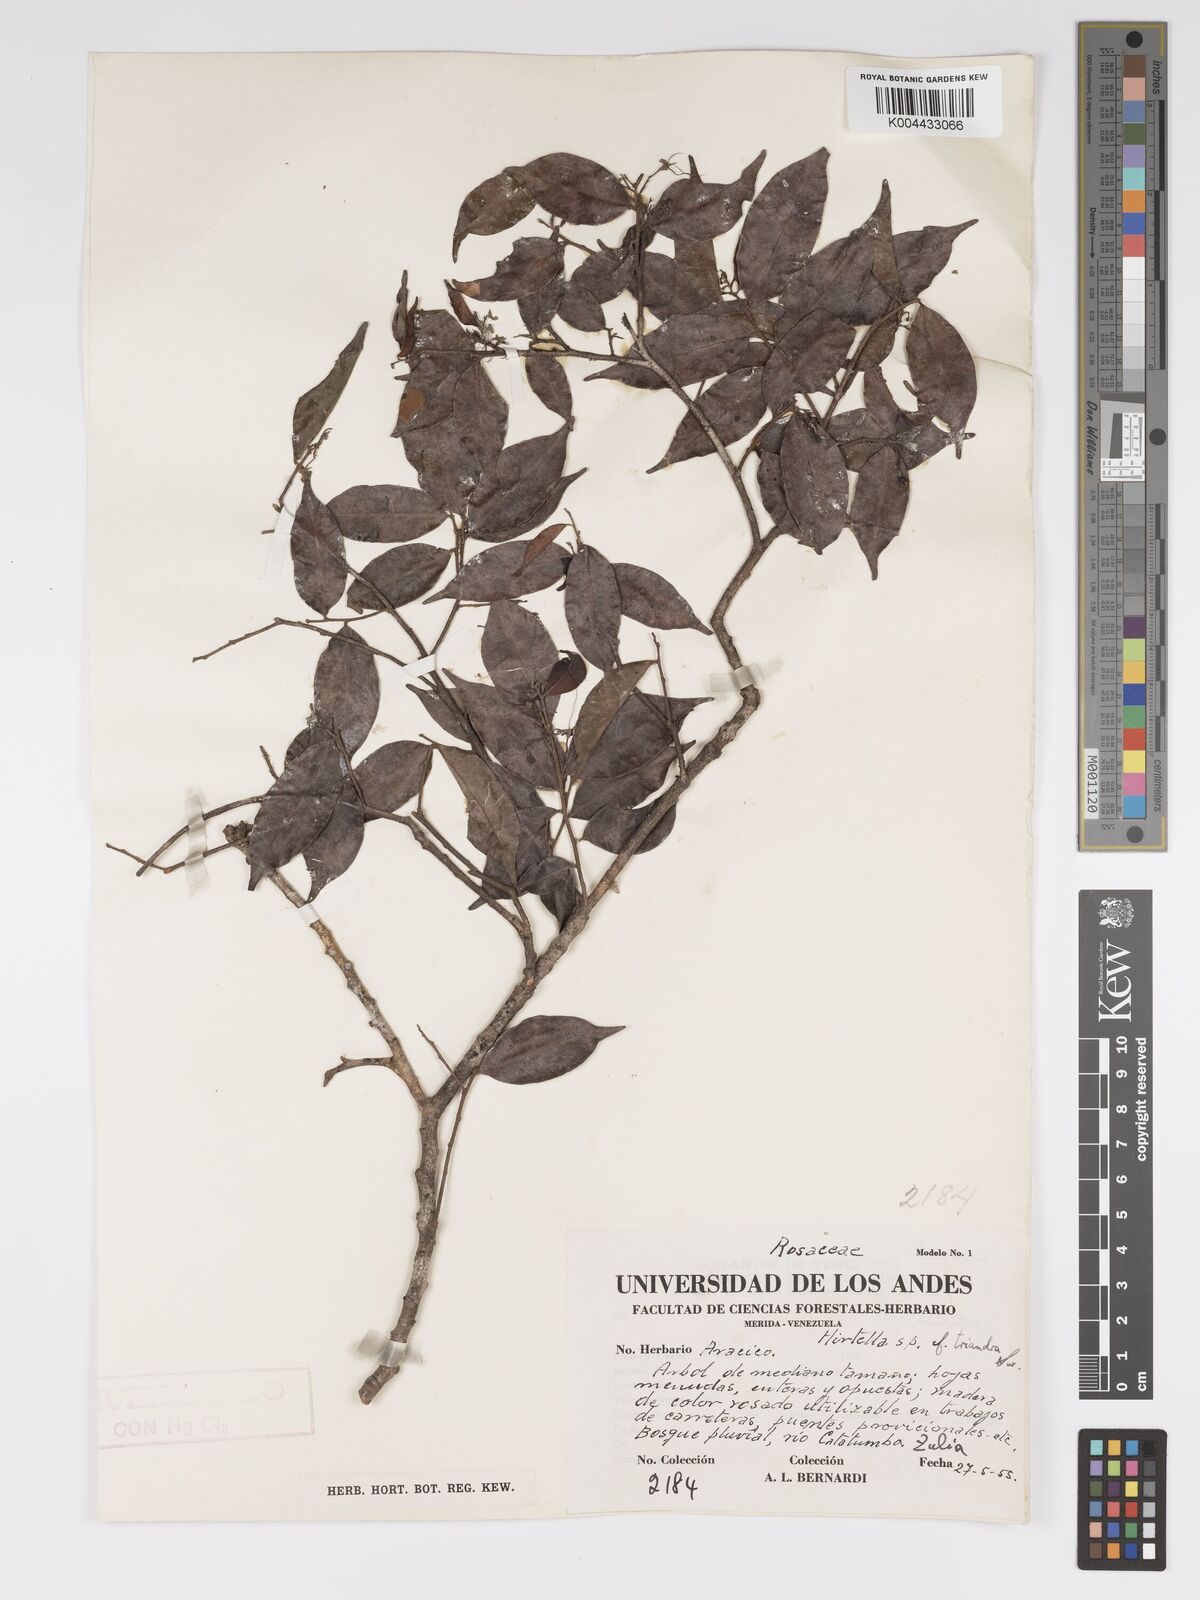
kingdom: Plantae
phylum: Tracheophyta
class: Magnoliopsida
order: Malpighiales
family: Chrysobalanaceae
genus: Hirtella
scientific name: Hirtella triandra
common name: Hairy plum
